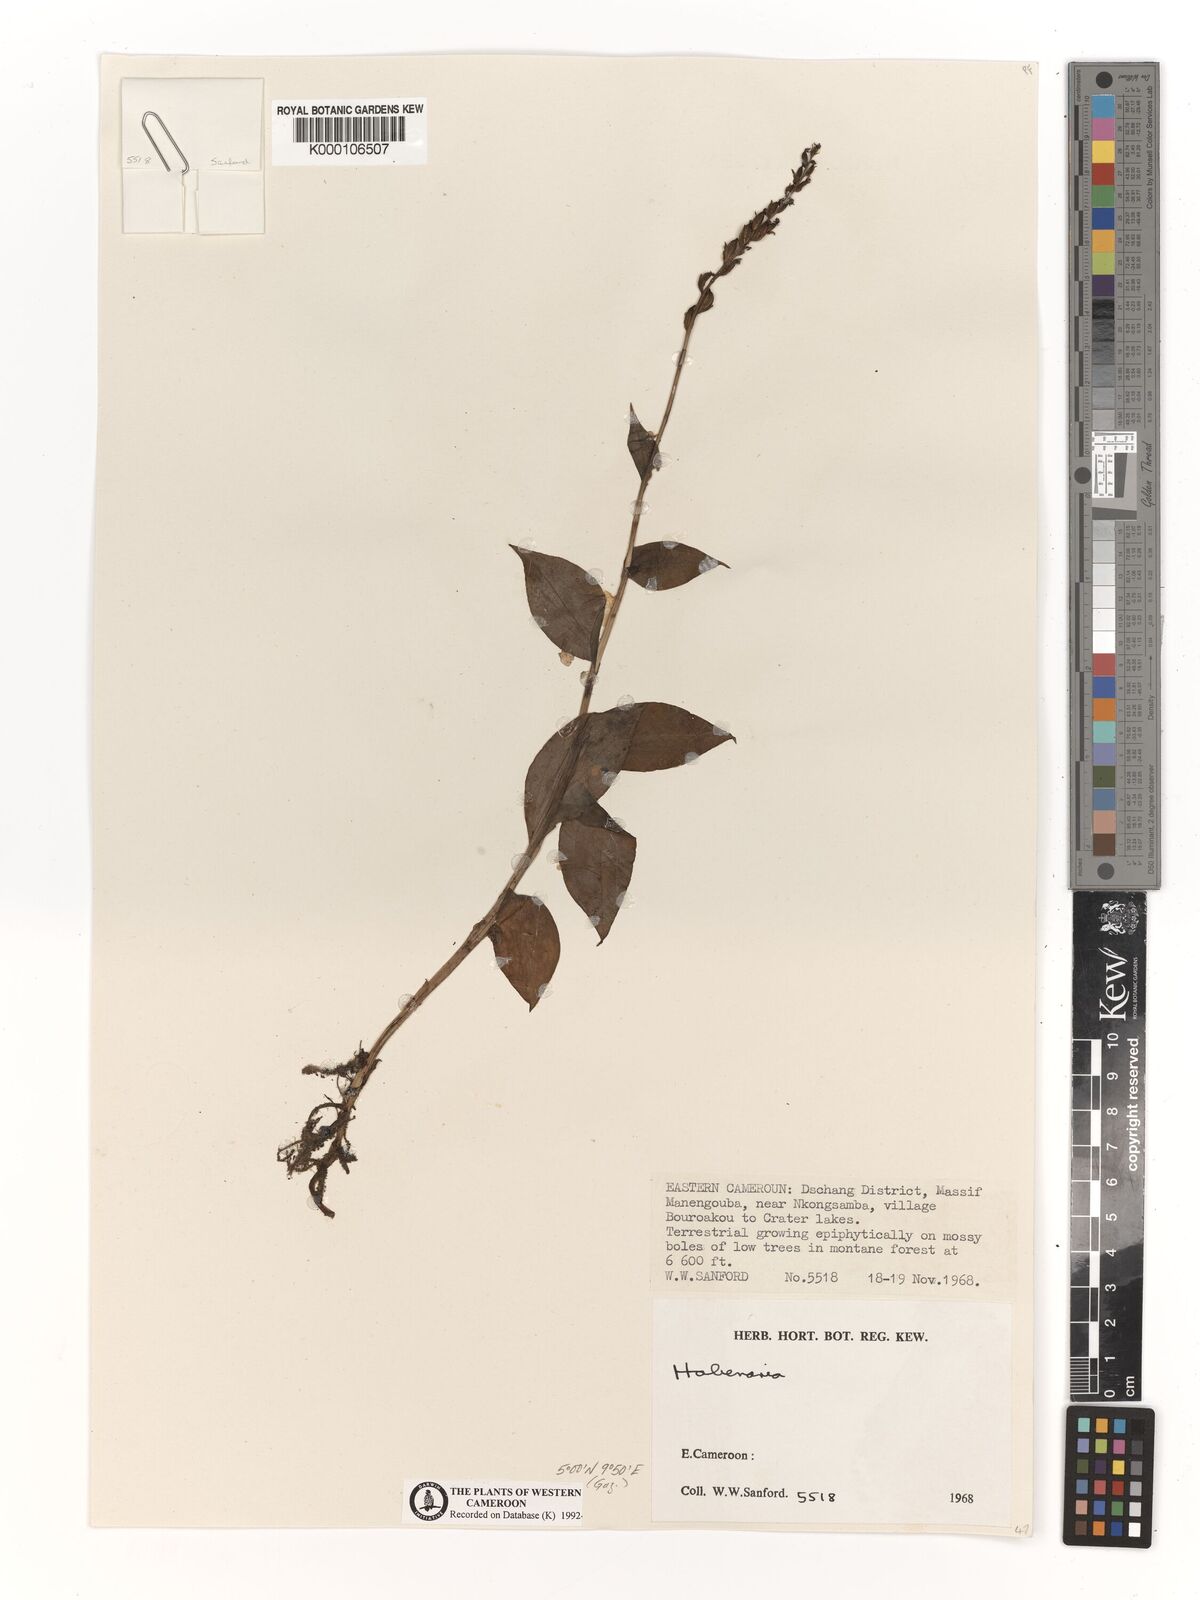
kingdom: Plantae
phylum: Tracheophyta
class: Liliopsida
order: Asparagales
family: Orchidaceae
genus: Habenaria
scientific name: Habenaria
